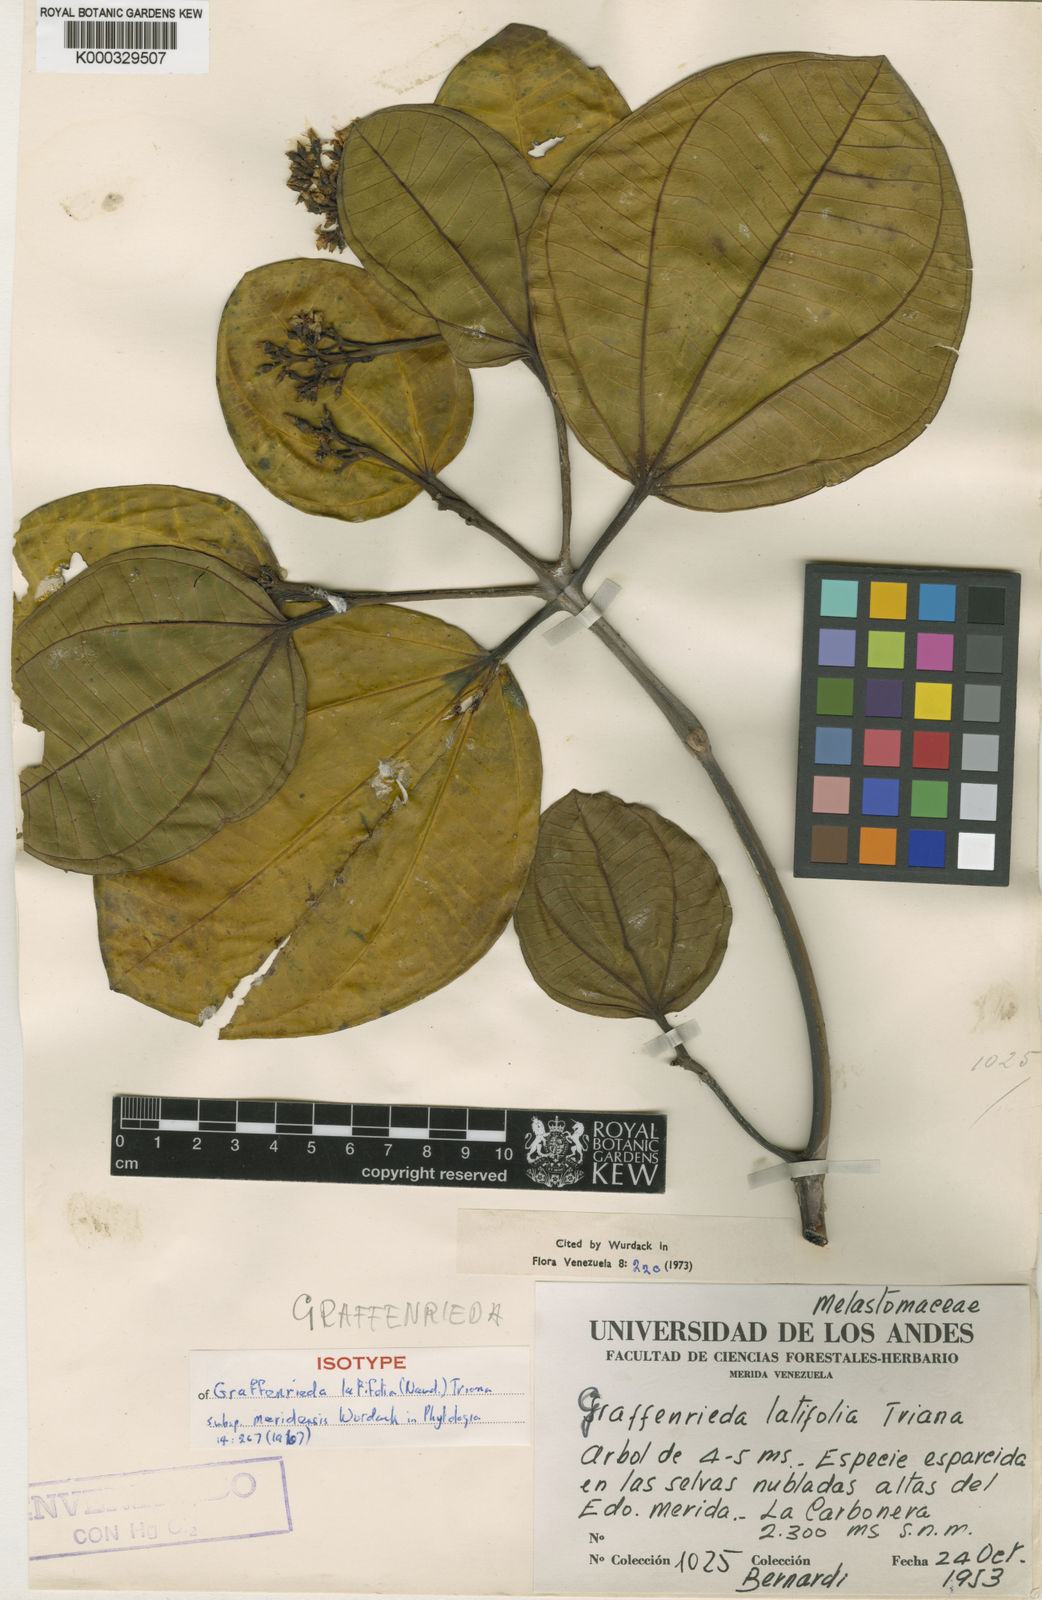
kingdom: Plantae
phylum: Tracheophyta
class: Magnoliopsida
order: Myrtales
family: Melastomataceae
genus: Graffenrieda
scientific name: Graffenrieda latifolia
